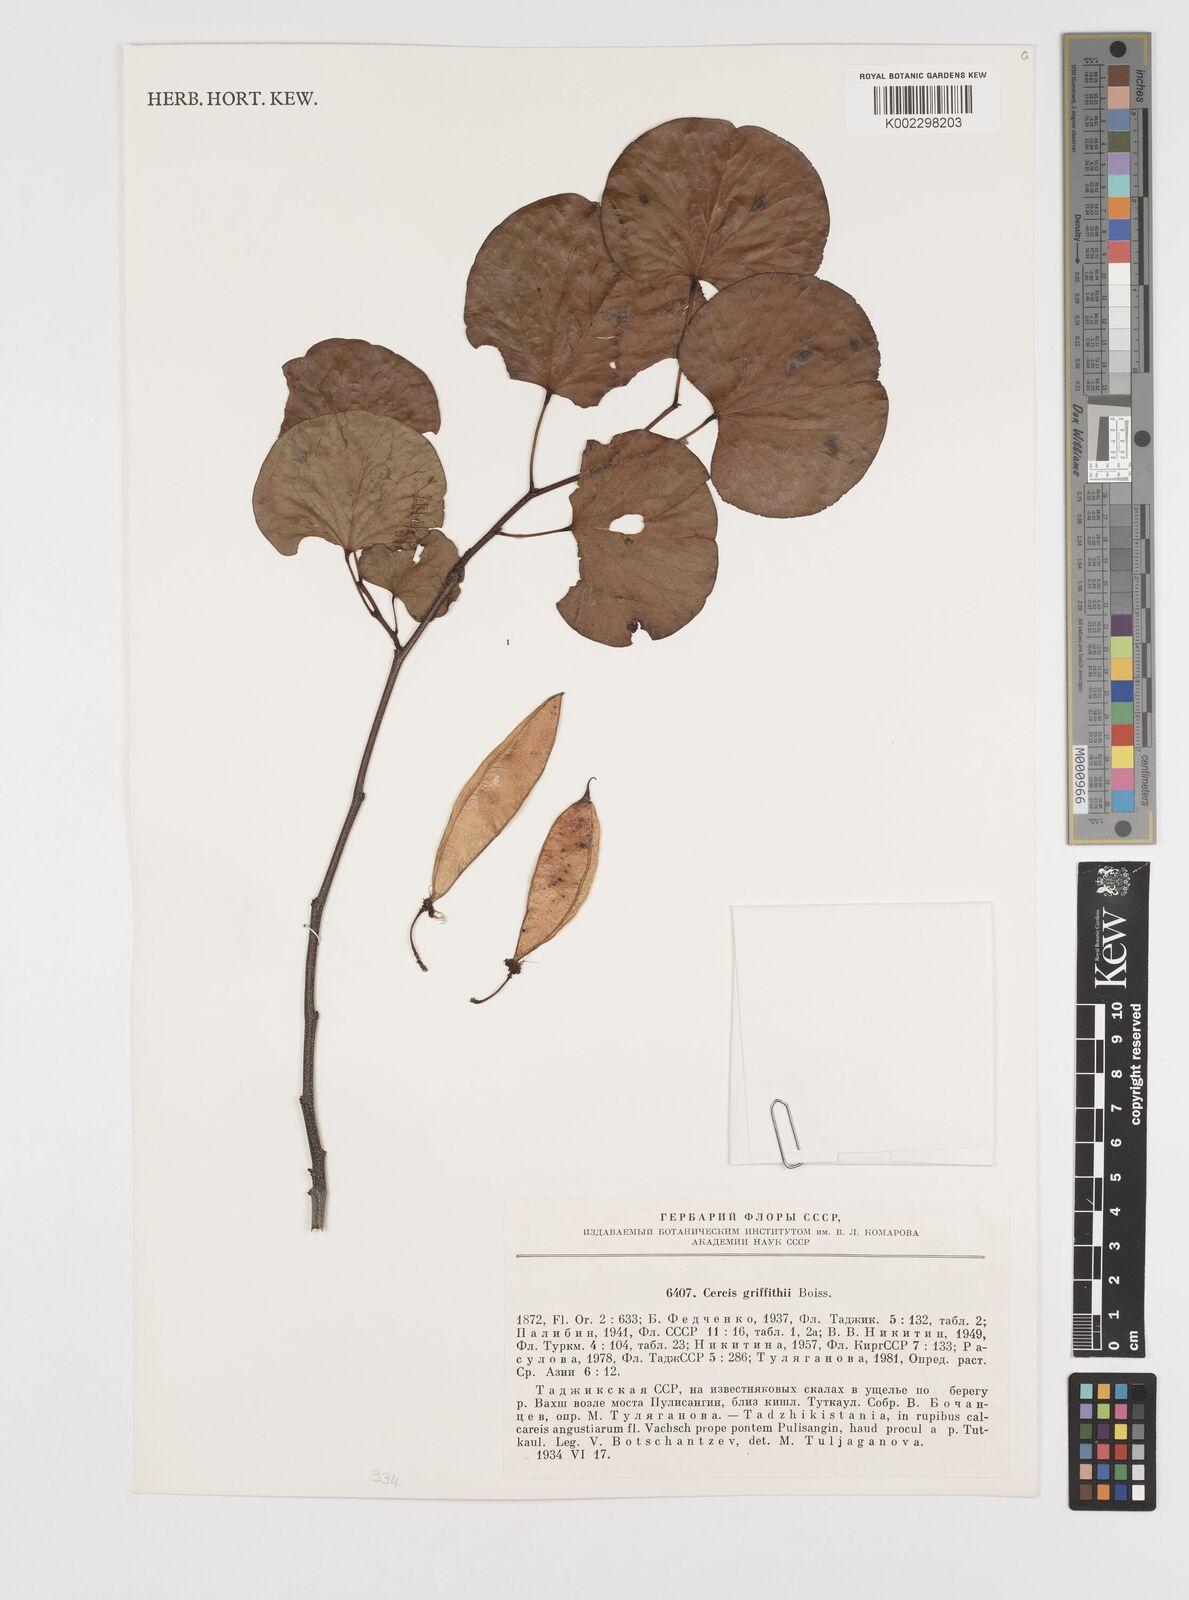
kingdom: Plantae
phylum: Tracheophyta
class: Magnoliopsida
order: Fabales
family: Fabaceae
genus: Cercis
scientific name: Cercis griffithii
